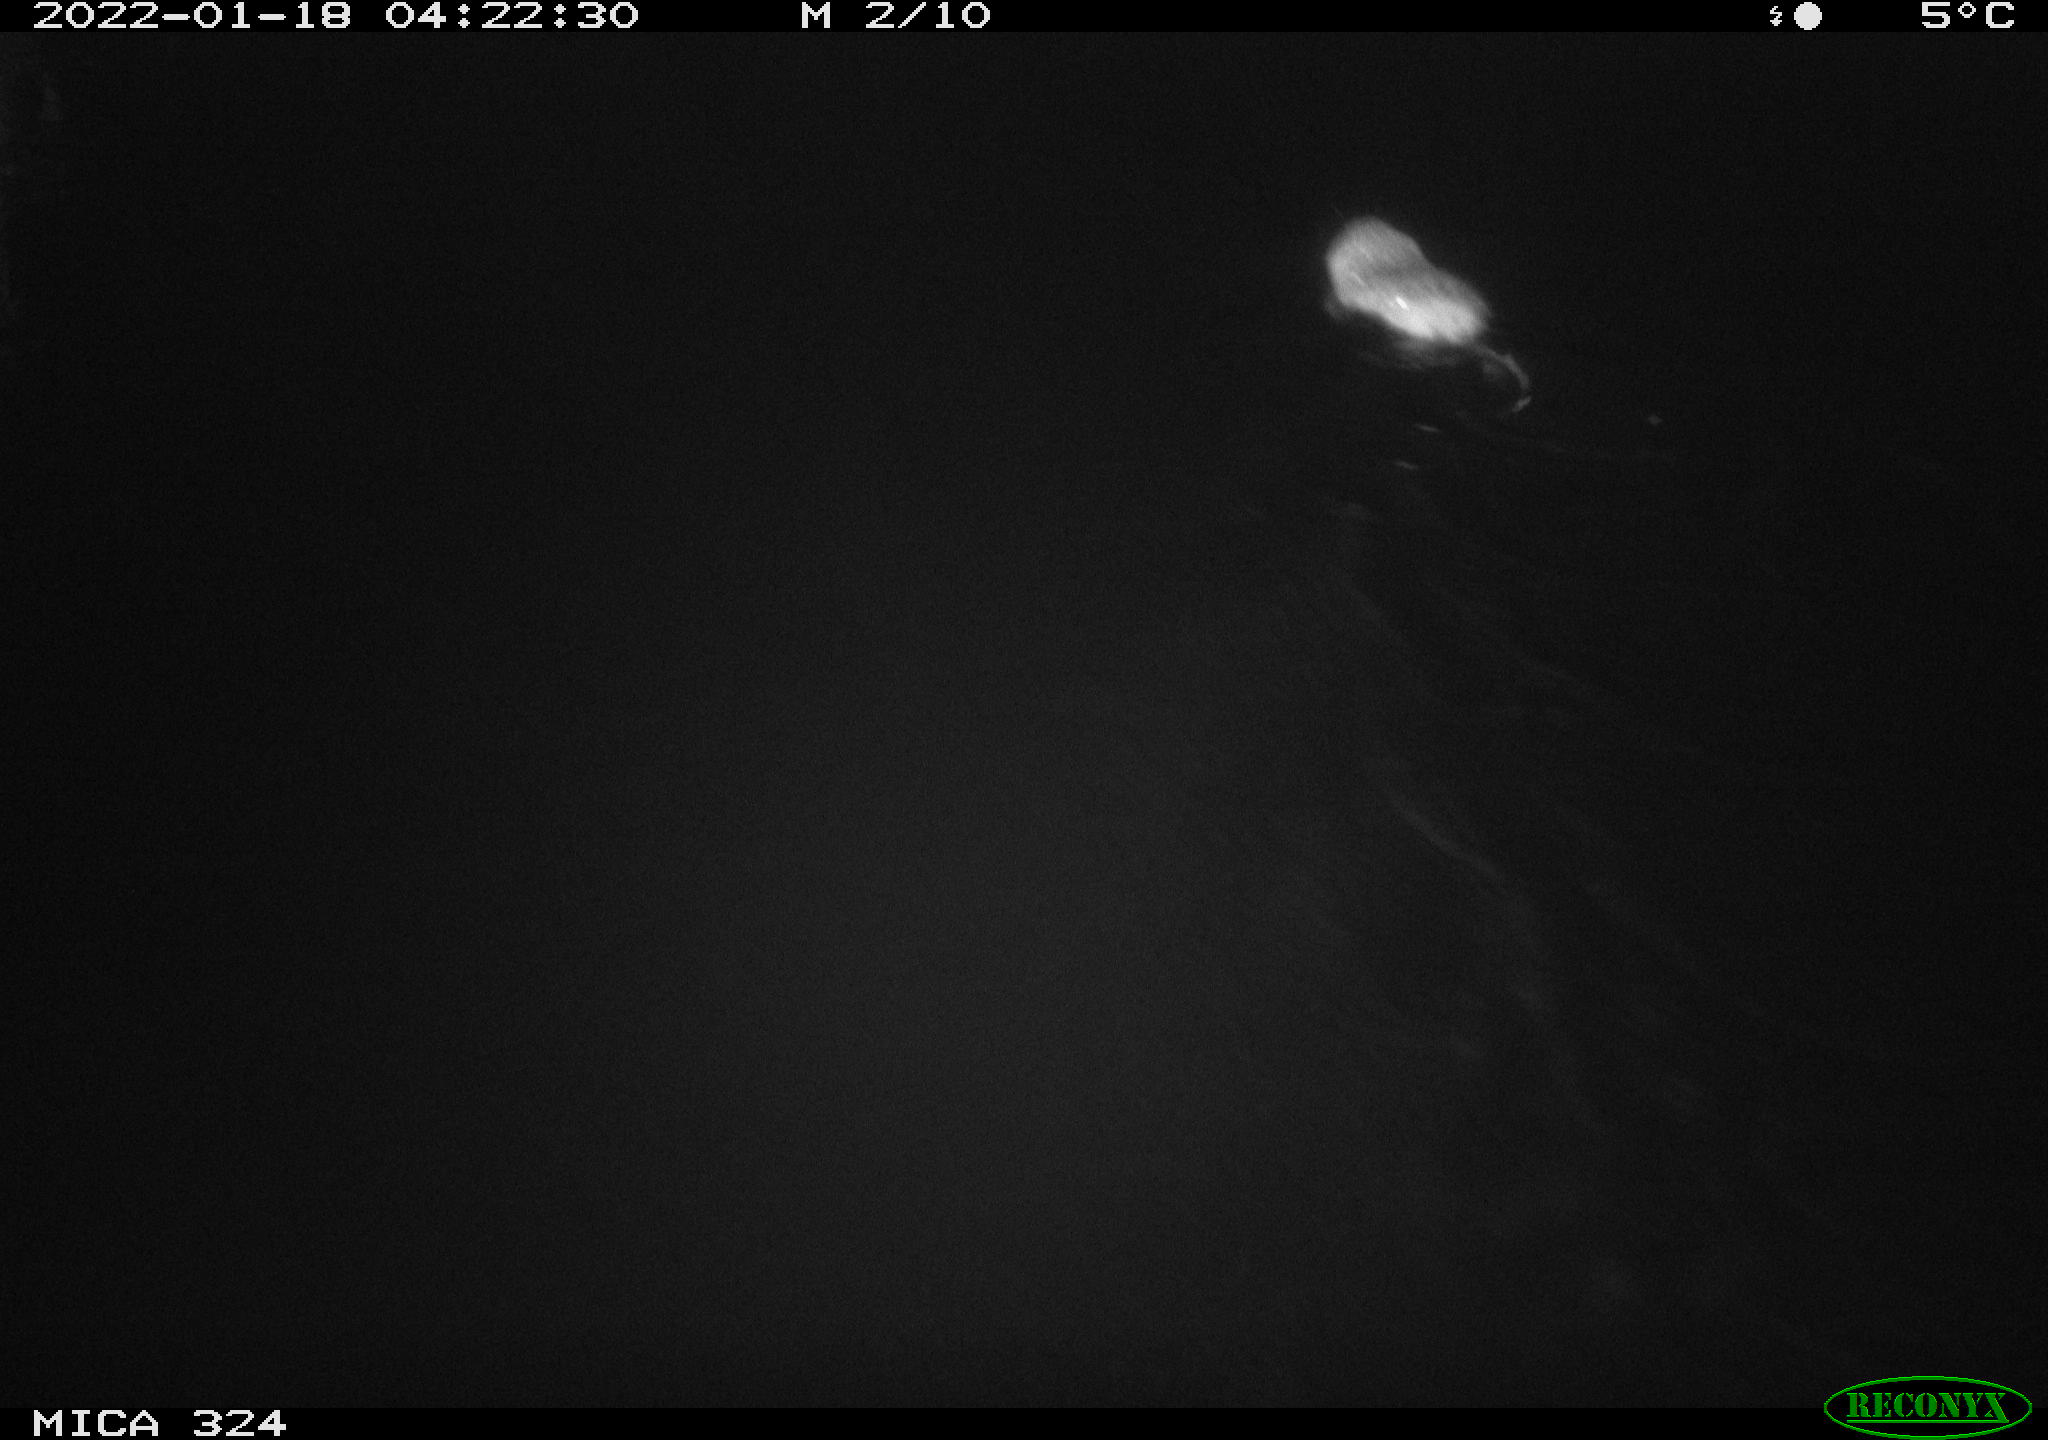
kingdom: Animalia
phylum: Chordata
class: Mammalia
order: Rodentia
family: Cricetidae
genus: Ondatra
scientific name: Ondatra zibethicus
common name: Muskrat
